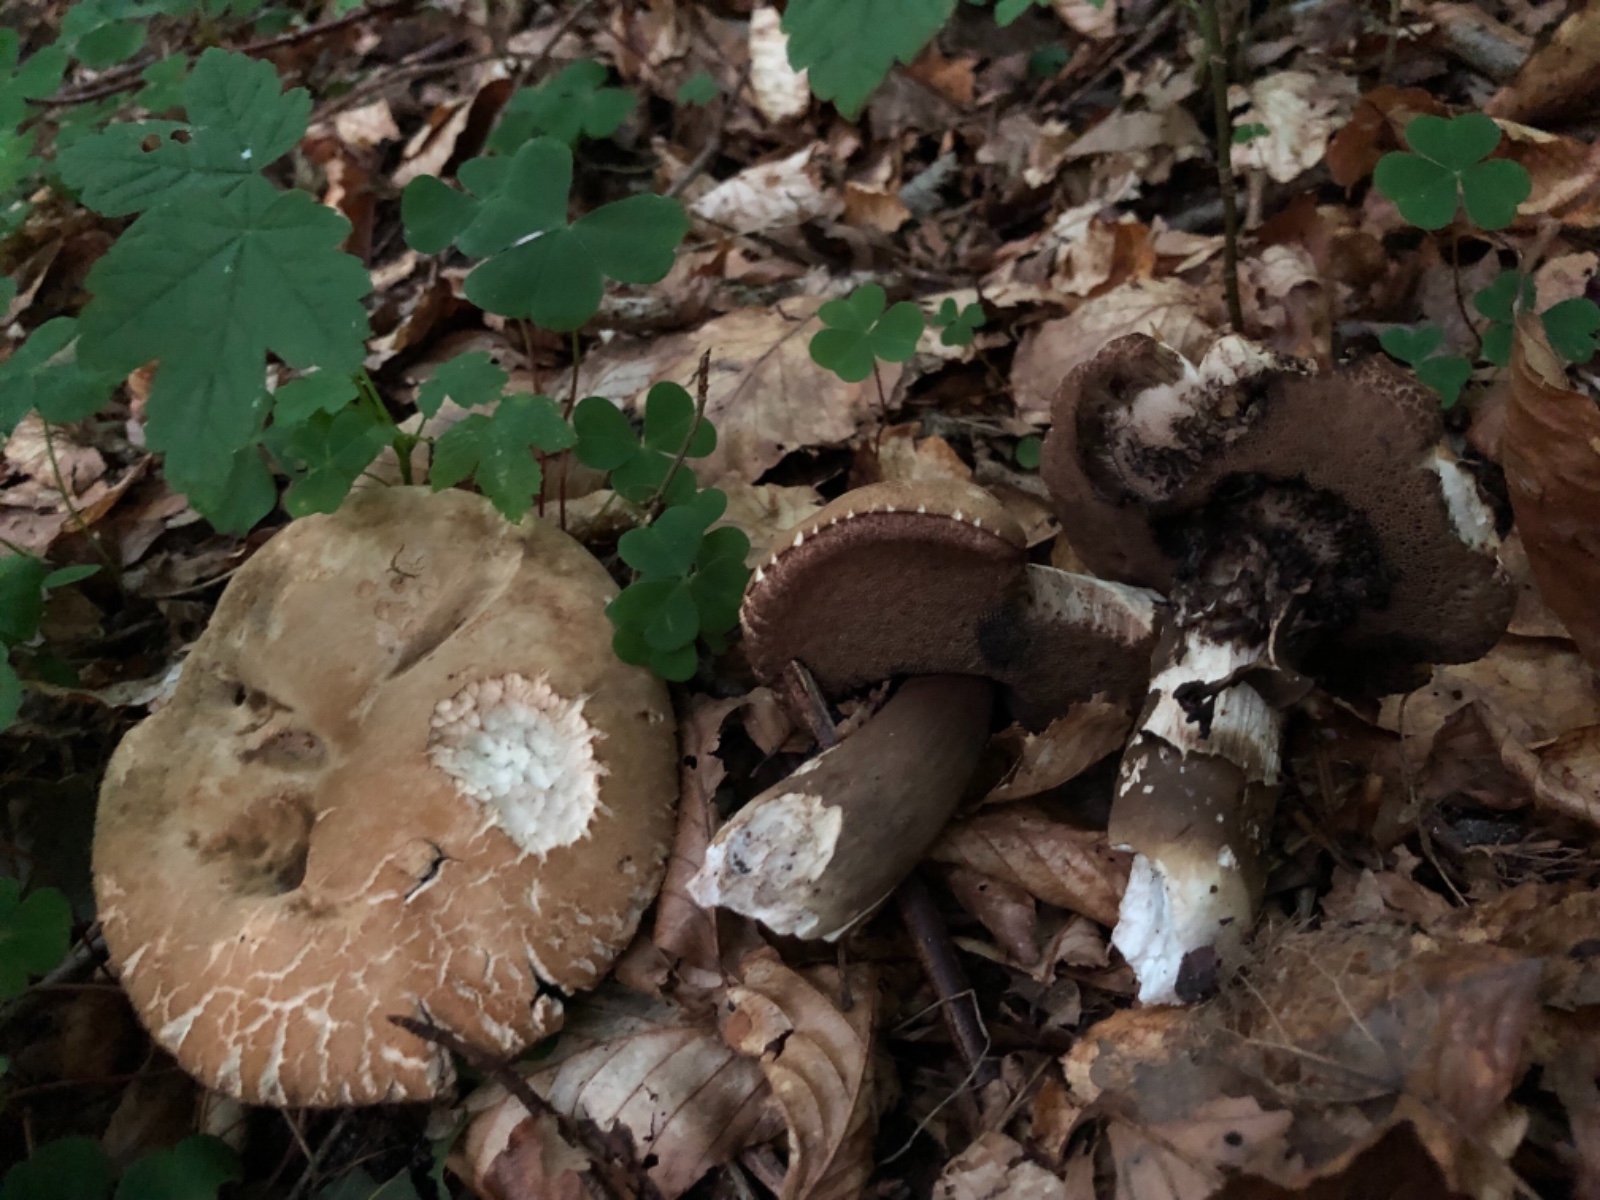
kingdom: Fungi
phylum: Basidiomycota
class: Agaricomycetes
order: Boletales
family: Boletaceae
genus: Porphyrellus
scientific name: Porphyrellus porphyrosporus
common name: sodrørhat
